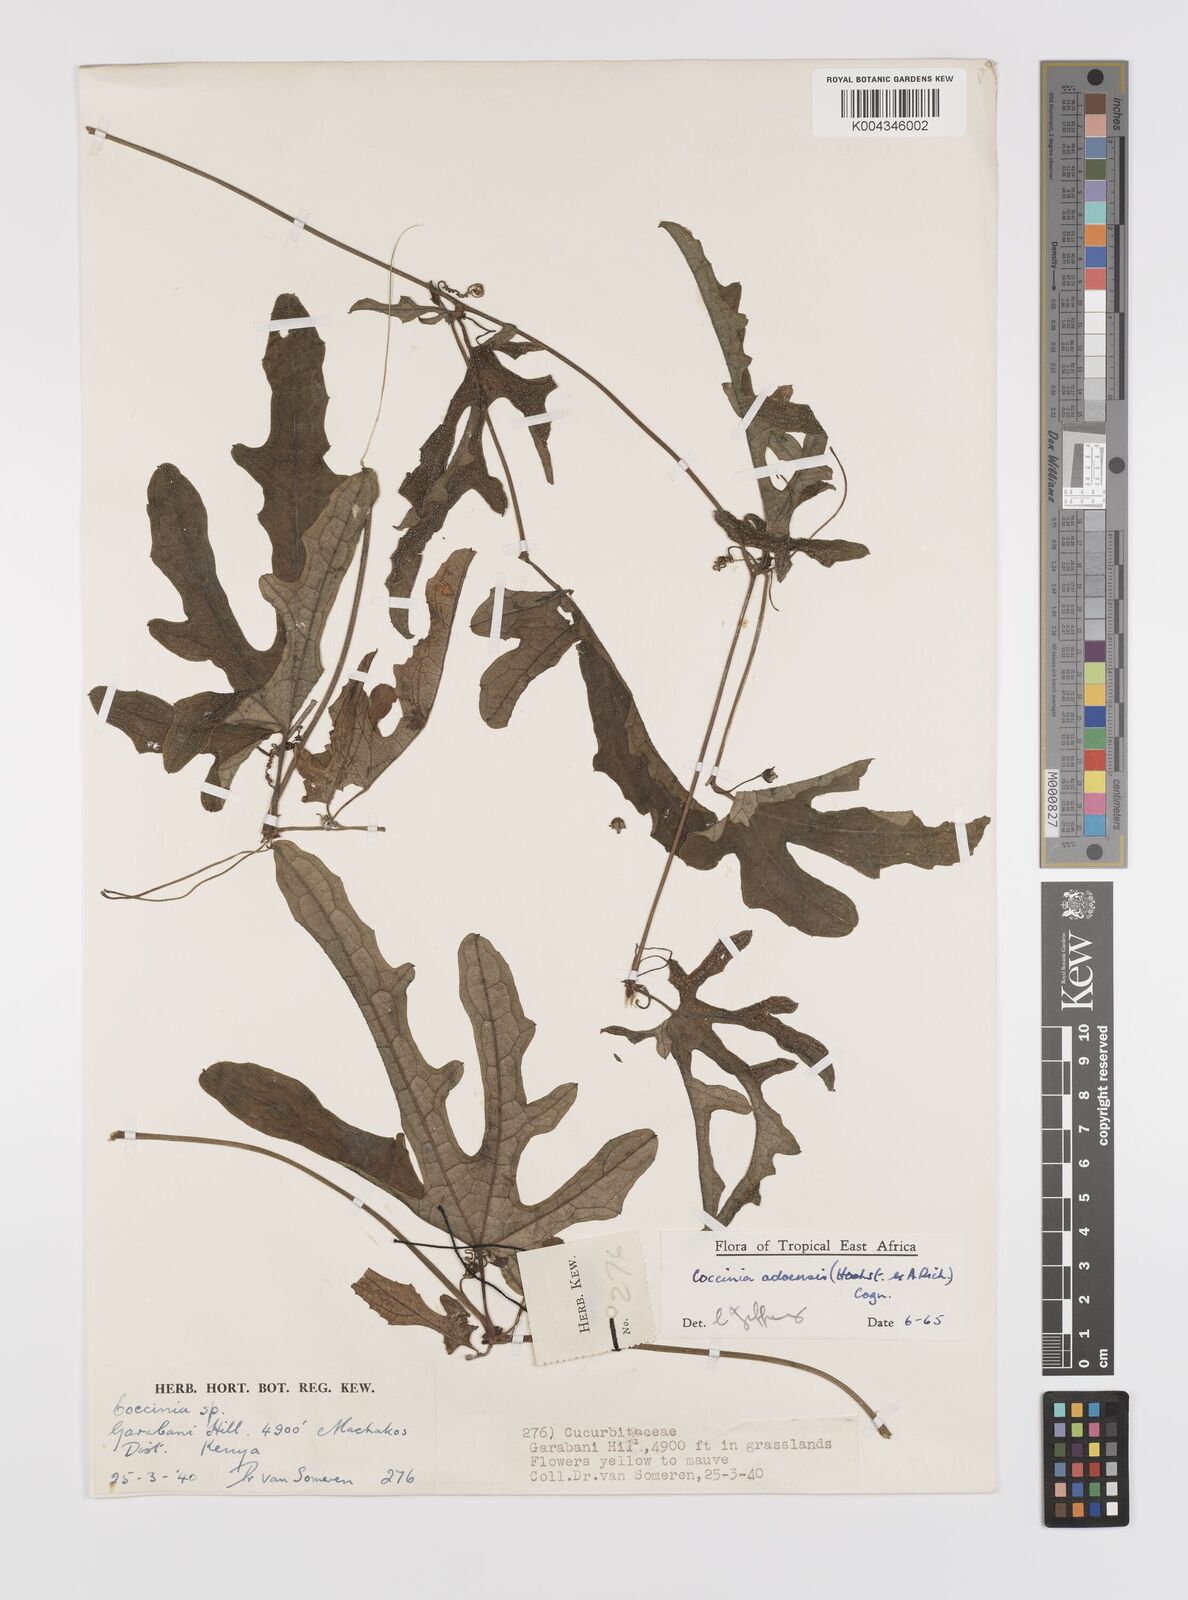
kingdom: Plantae
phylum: Tracheophyta
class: Magnoliopsida
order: Cucurbitales
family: Cucurbitaceae
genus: Coccinia
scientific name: Coccinia adoensis
